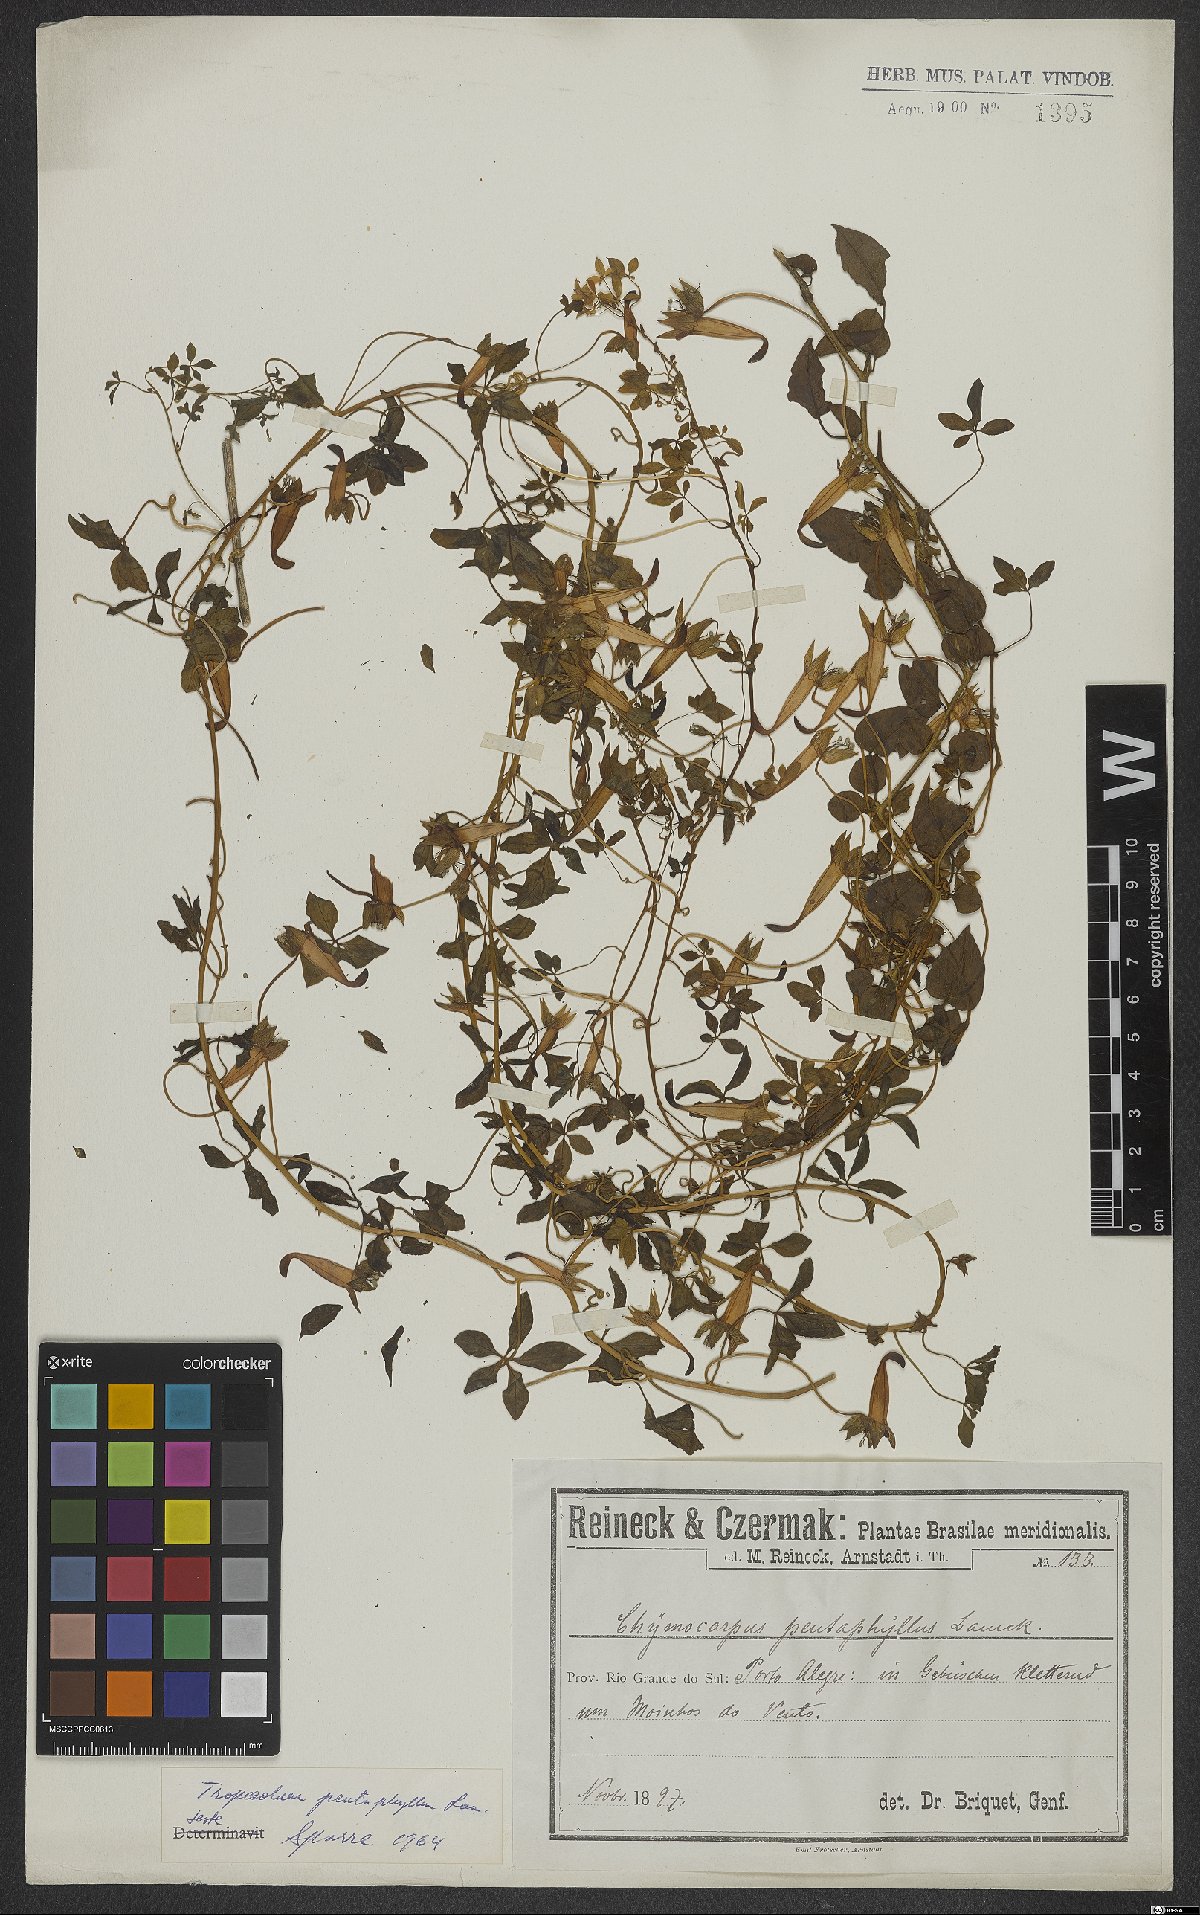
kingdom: Plantae
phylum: Tracheophyta
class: Magnoliopsida
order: Brassicales
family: Tropaeolaceae
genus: Tropaeolum
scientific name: Tropaeolum pentaphyllum
